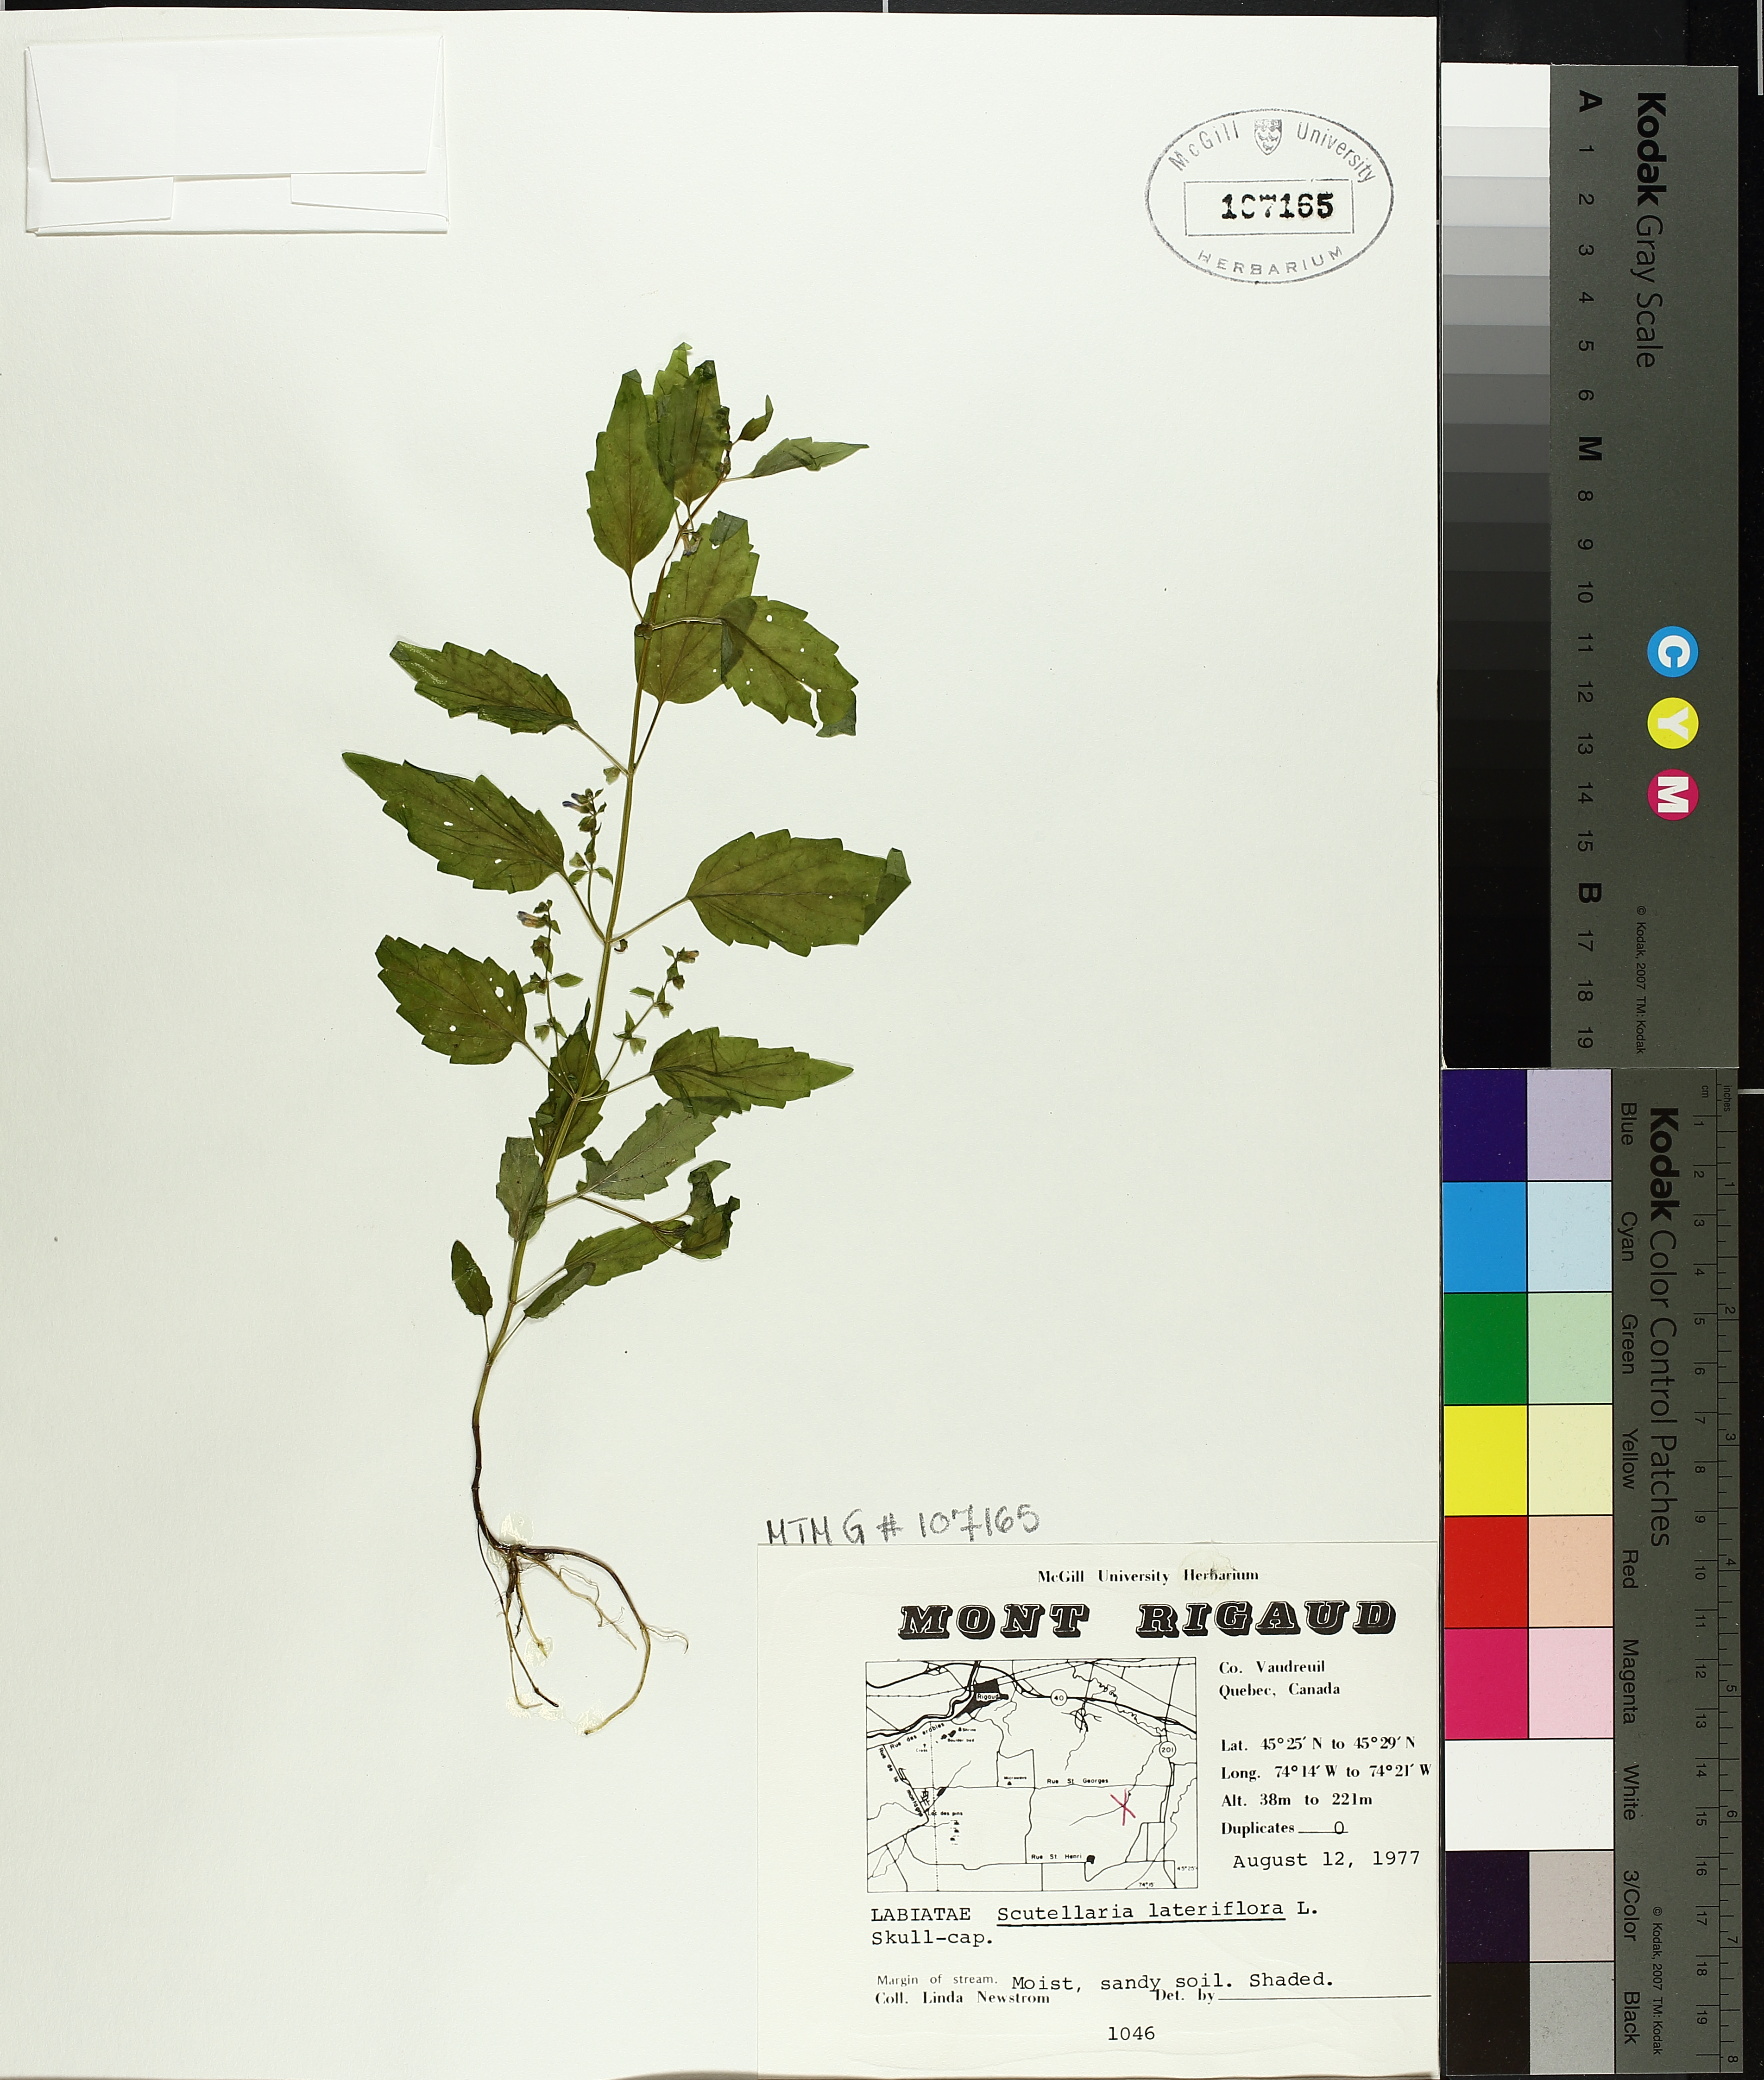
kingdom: Plantae
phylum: Tracheophyta
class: Magnoliopsida
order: Lamiales
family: Lamiaceae
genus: Scutellaria
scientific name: Scutellaria lateriflora
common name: Blue skullcap
